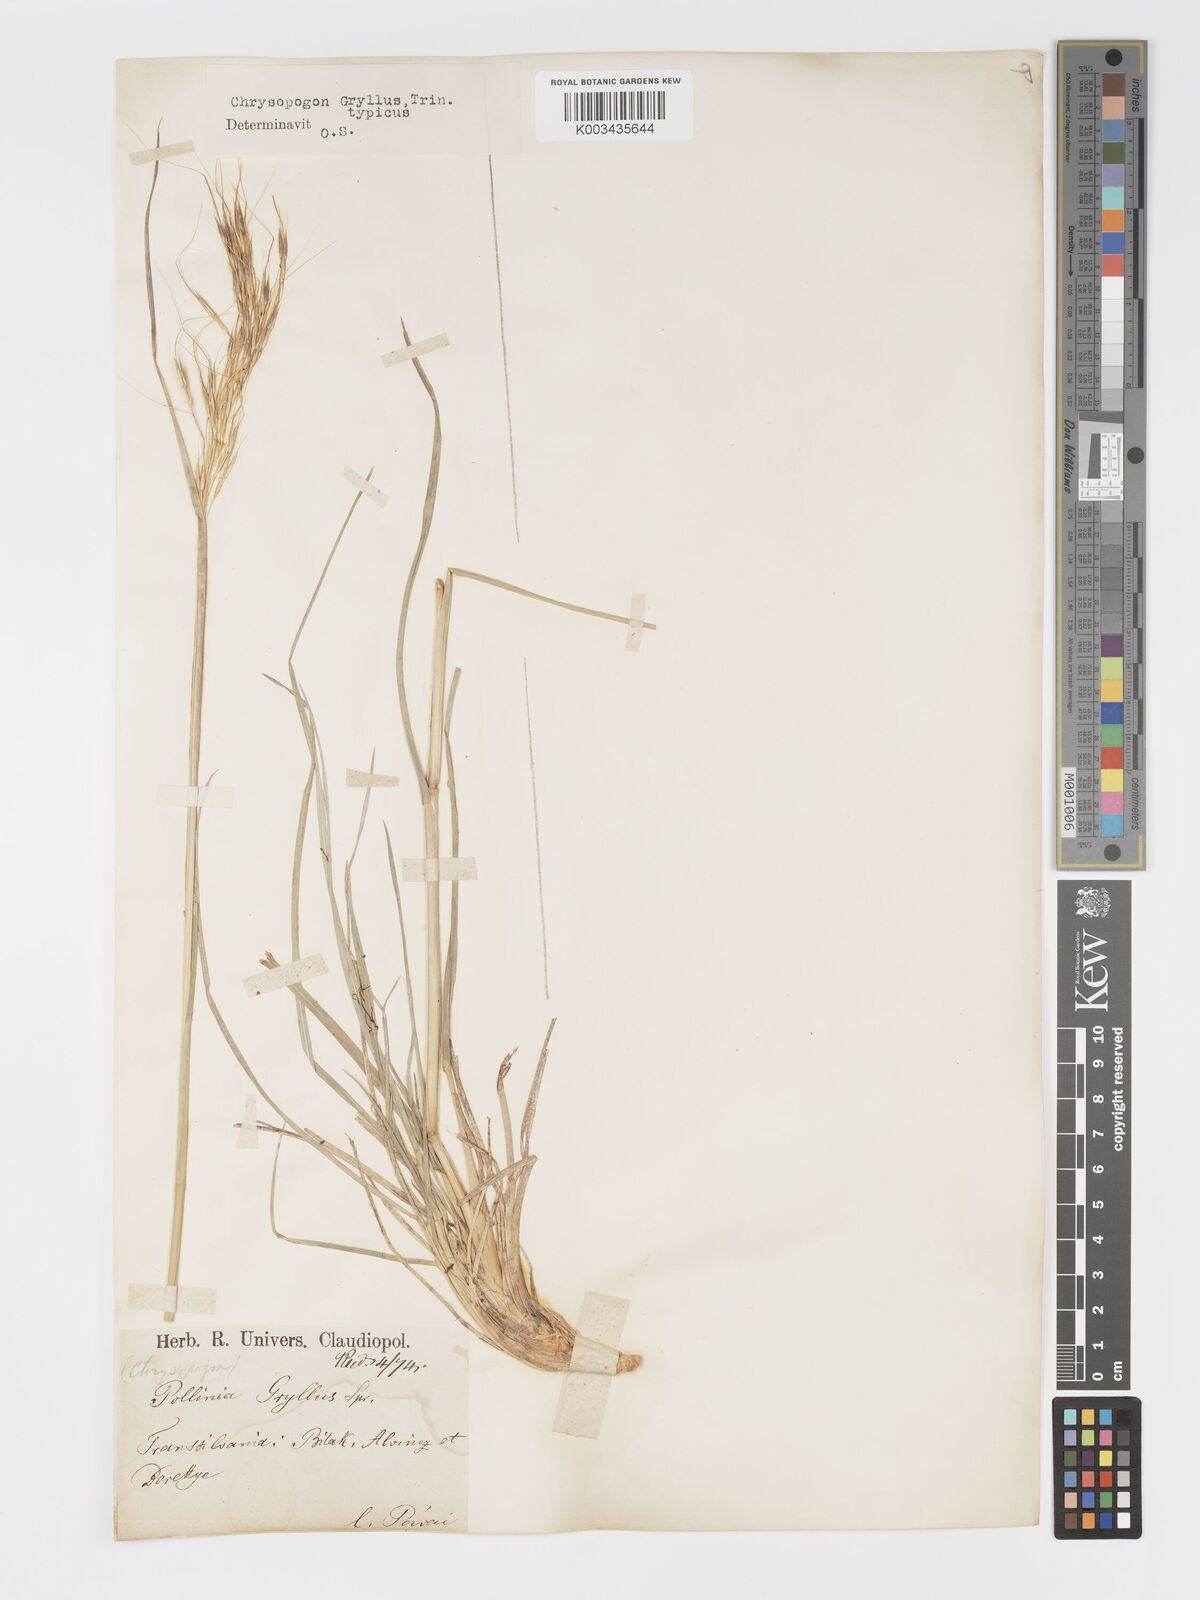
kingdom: Plantae
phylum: Tracheophyta
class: Liliopsida
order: Poales
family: Poaceae
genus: Chrysopogon
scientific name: Chrysopogon gryllus
